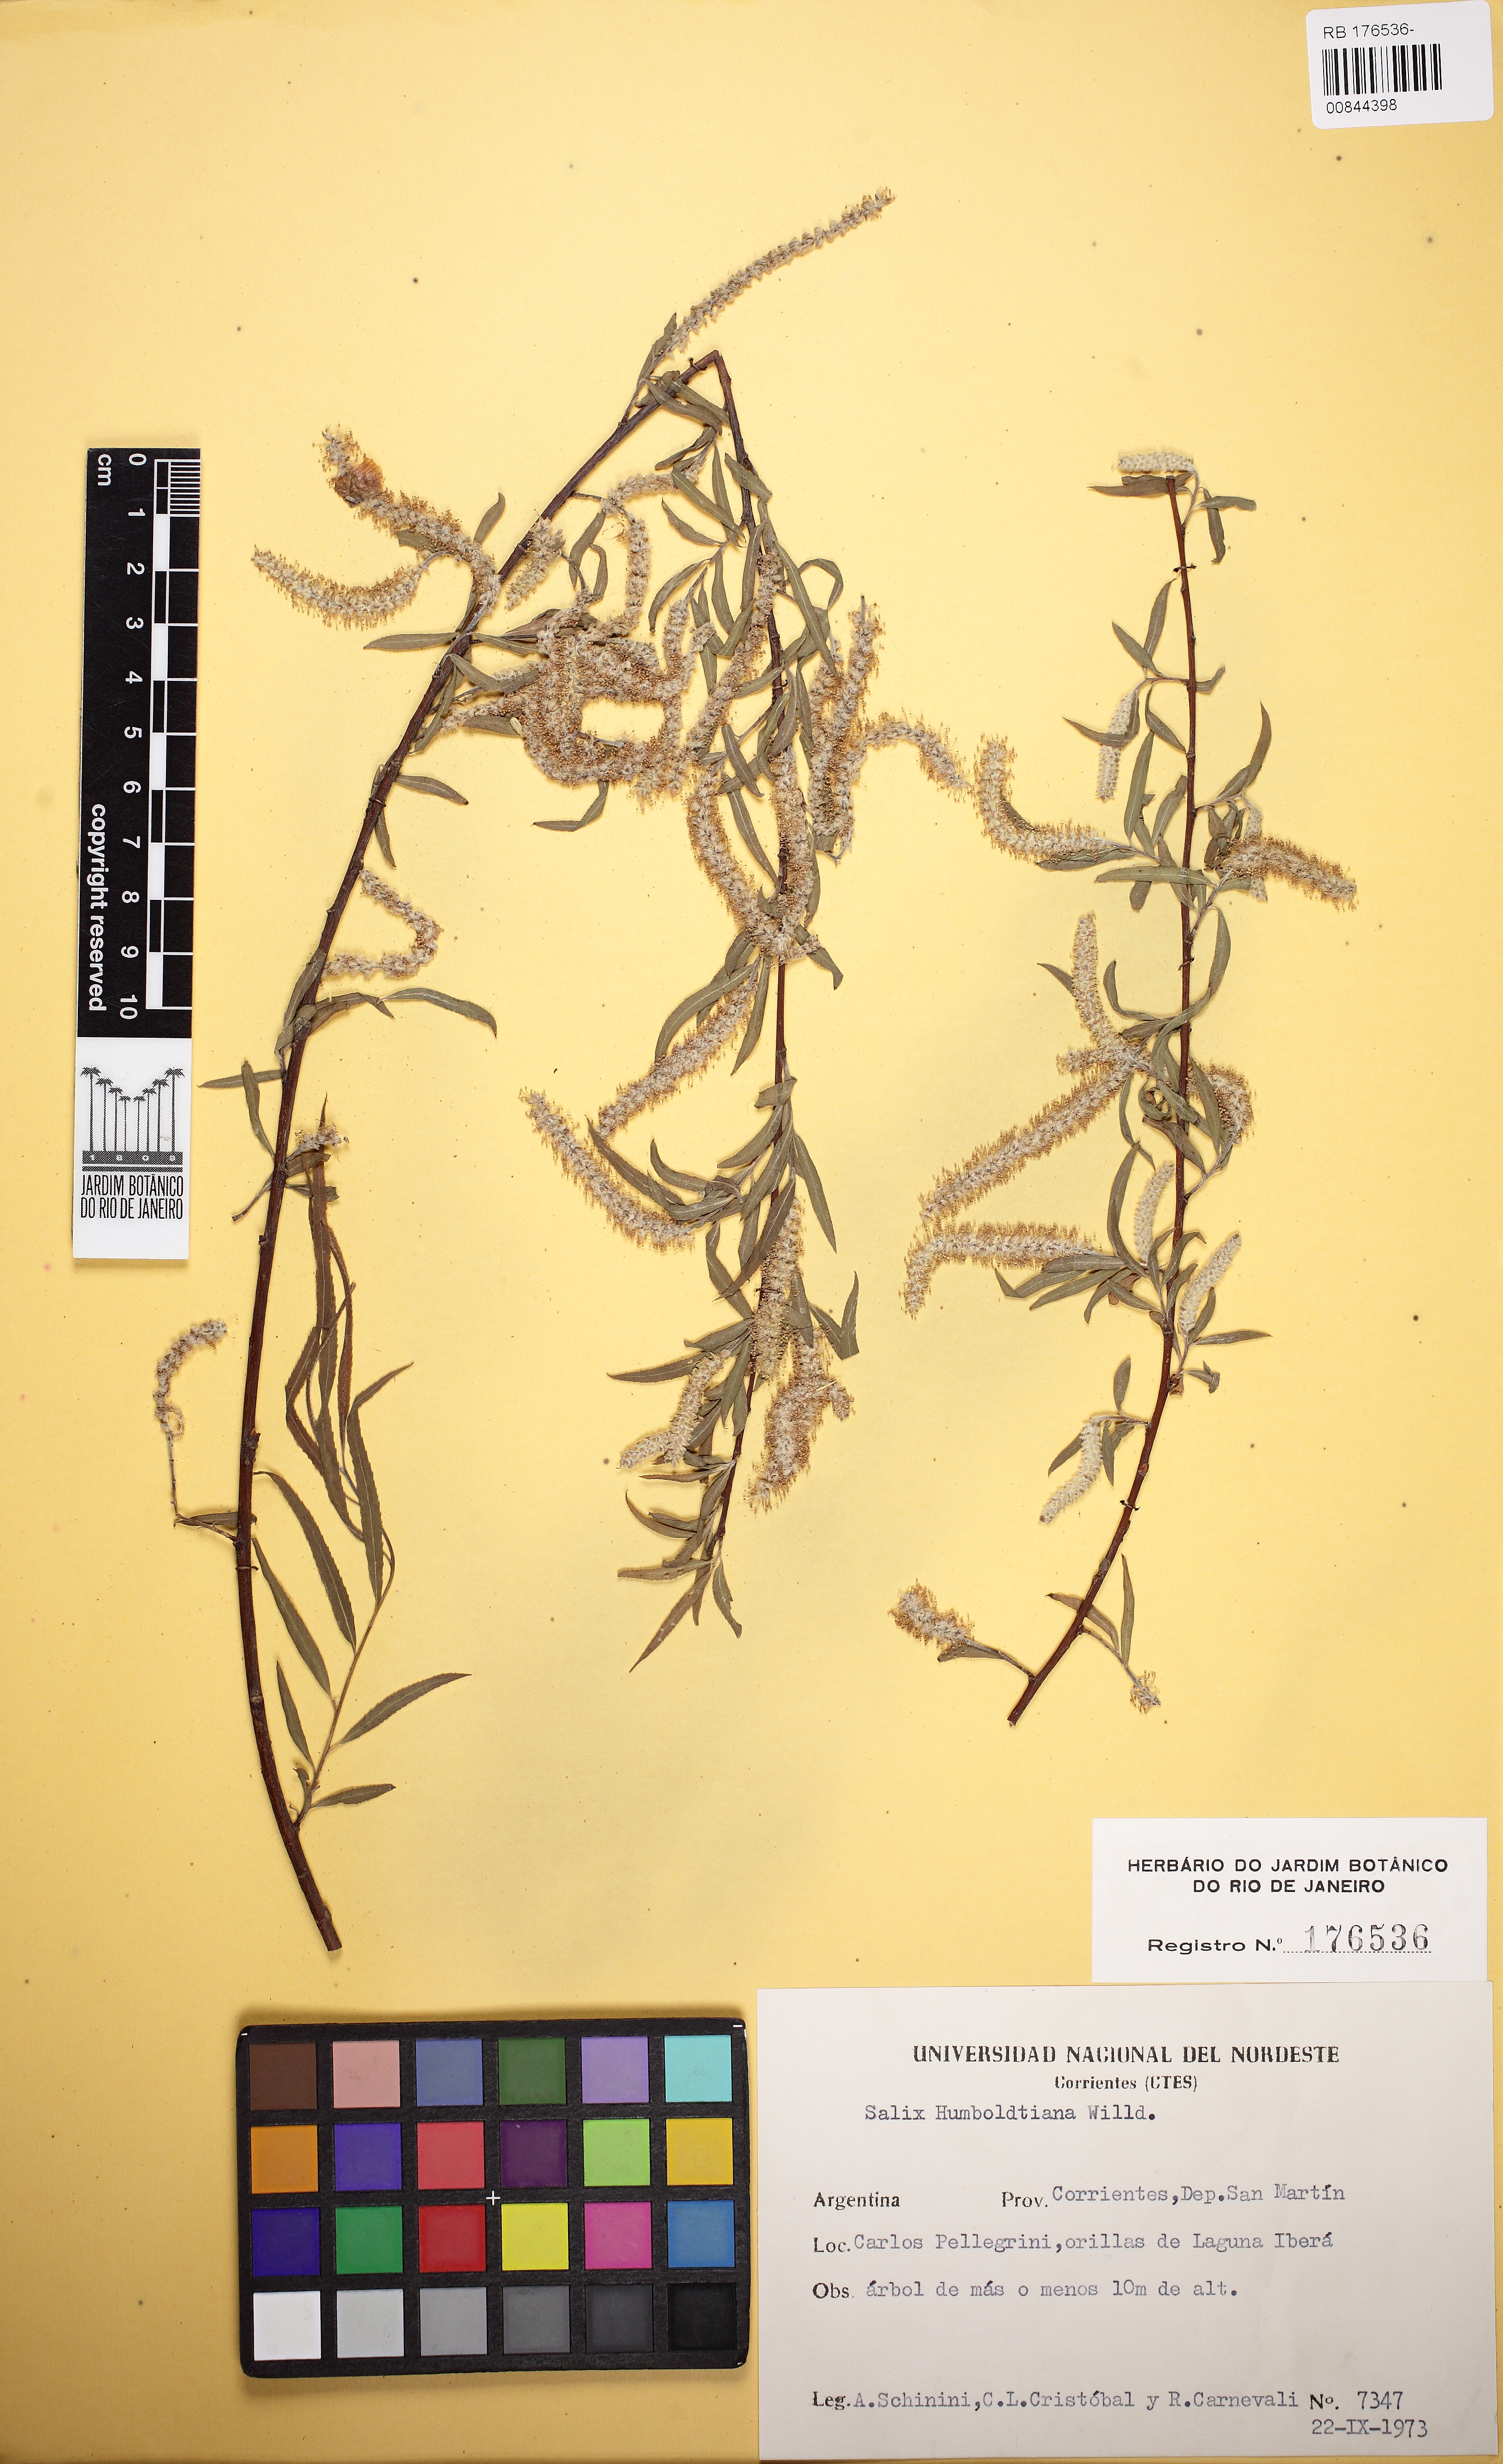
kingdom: Plantae
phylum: Tracheophyta
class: Magnoliopsida
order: Malpighiales
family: Salicaceae
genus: Salix
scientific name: Salix humboldtiana
